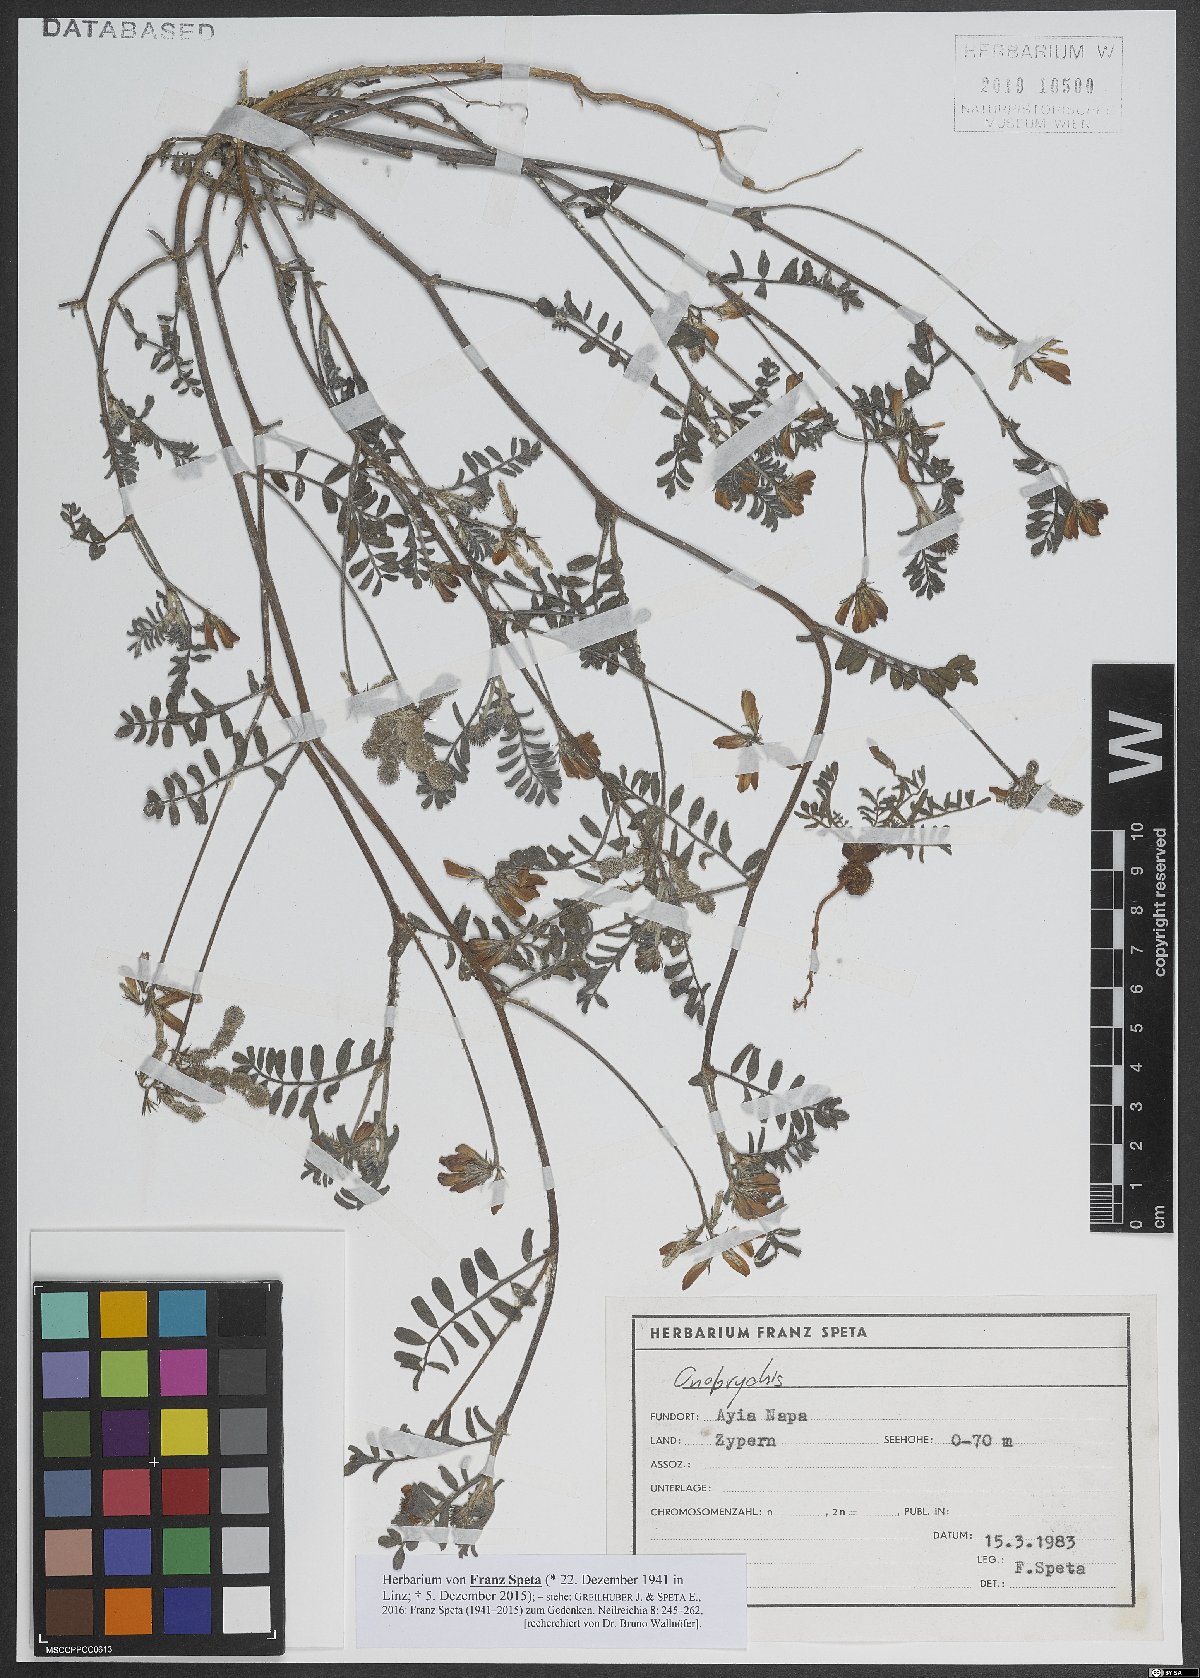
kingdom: Plantae
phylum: Tracheophyta
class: Magnoliopsida
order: Fabales
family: Fabaceae
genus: Onobrychis
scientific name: Onobrychis
